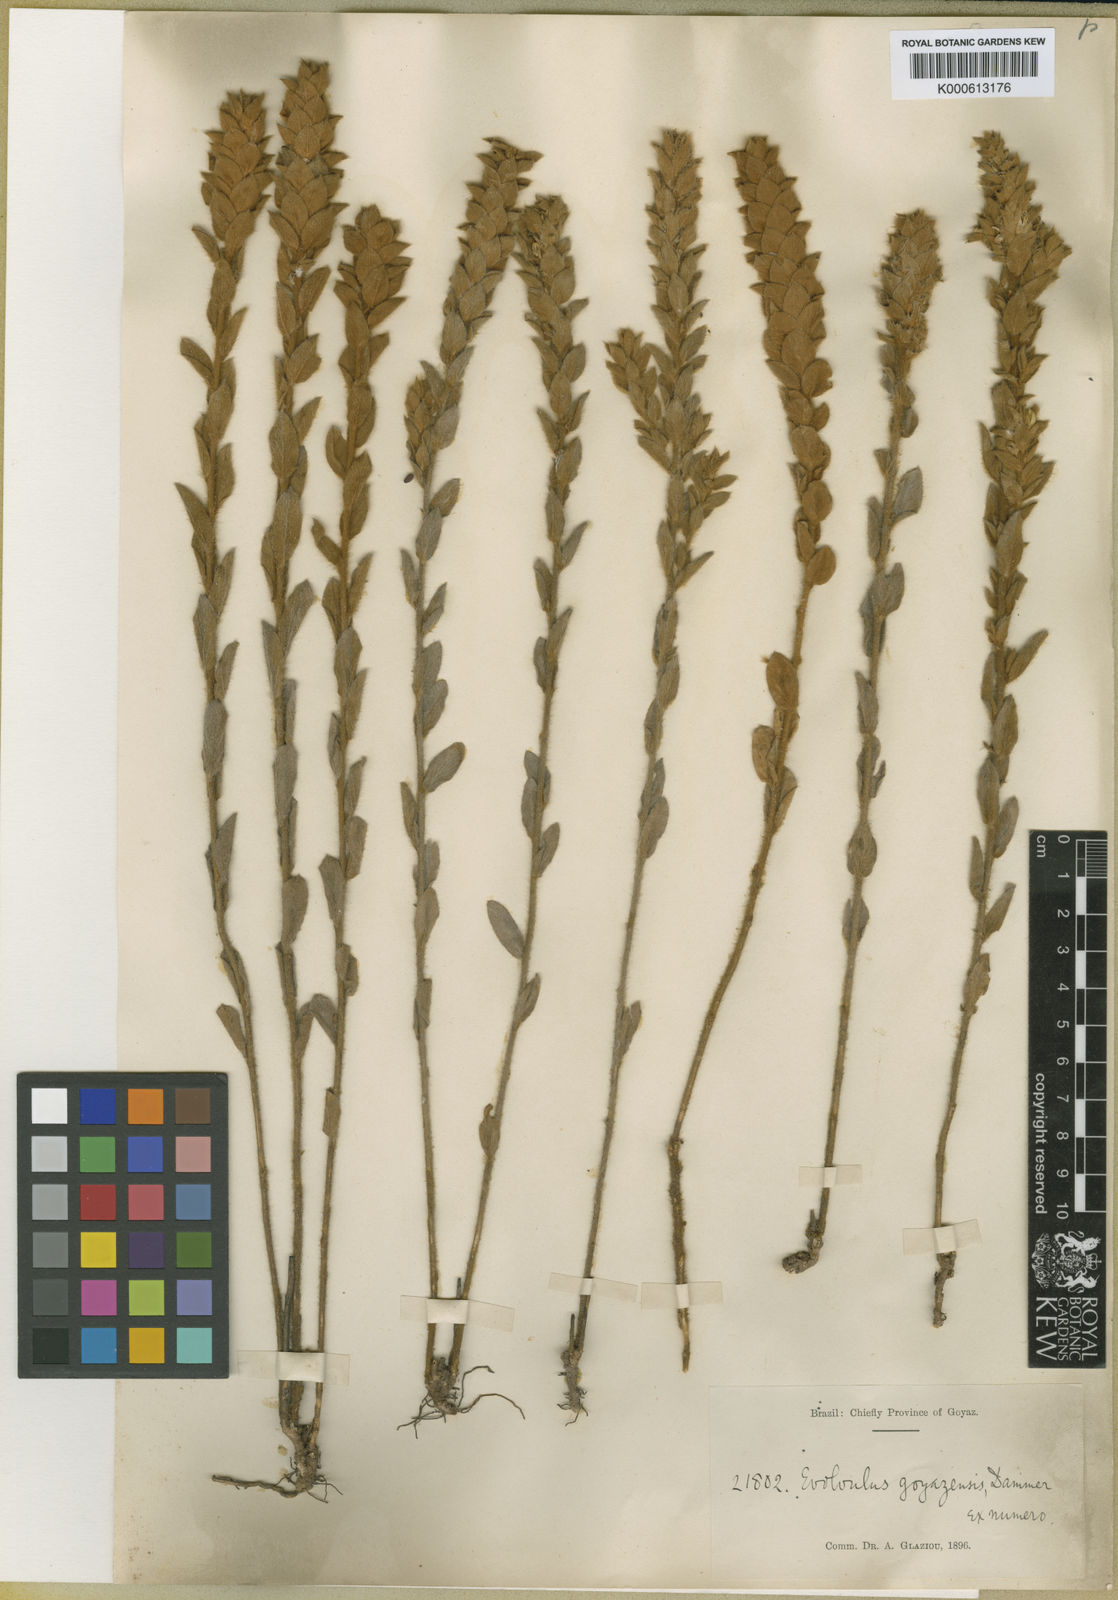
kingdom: Plantae
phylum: Tracheophyta
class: Magnoliopsida
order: Solanales
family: Convolvulaceae
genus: Evolvulus
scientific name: Evolvulus goyazensis
